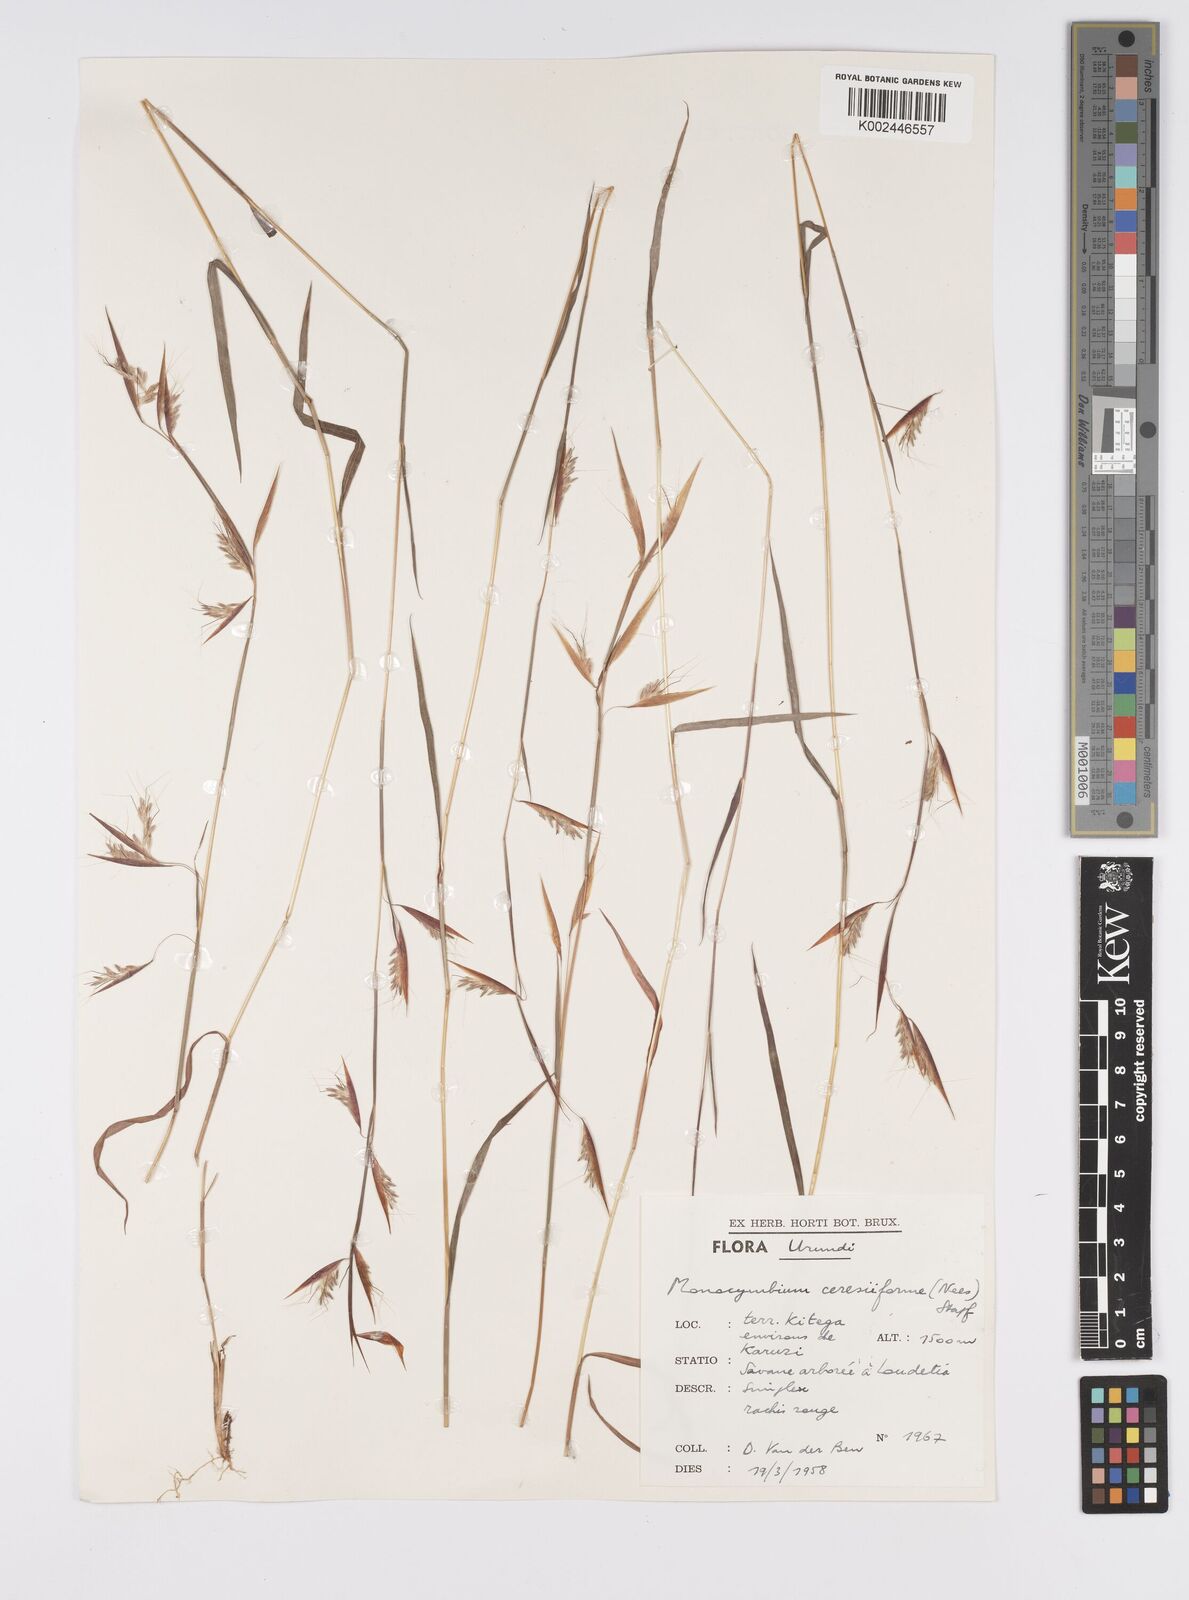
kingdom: Plantae
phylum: Tracheophyta
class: Liliopsida
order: Poales
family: Poaceae
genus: Monocymbium
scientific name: Monocymbium ceresiiforme
